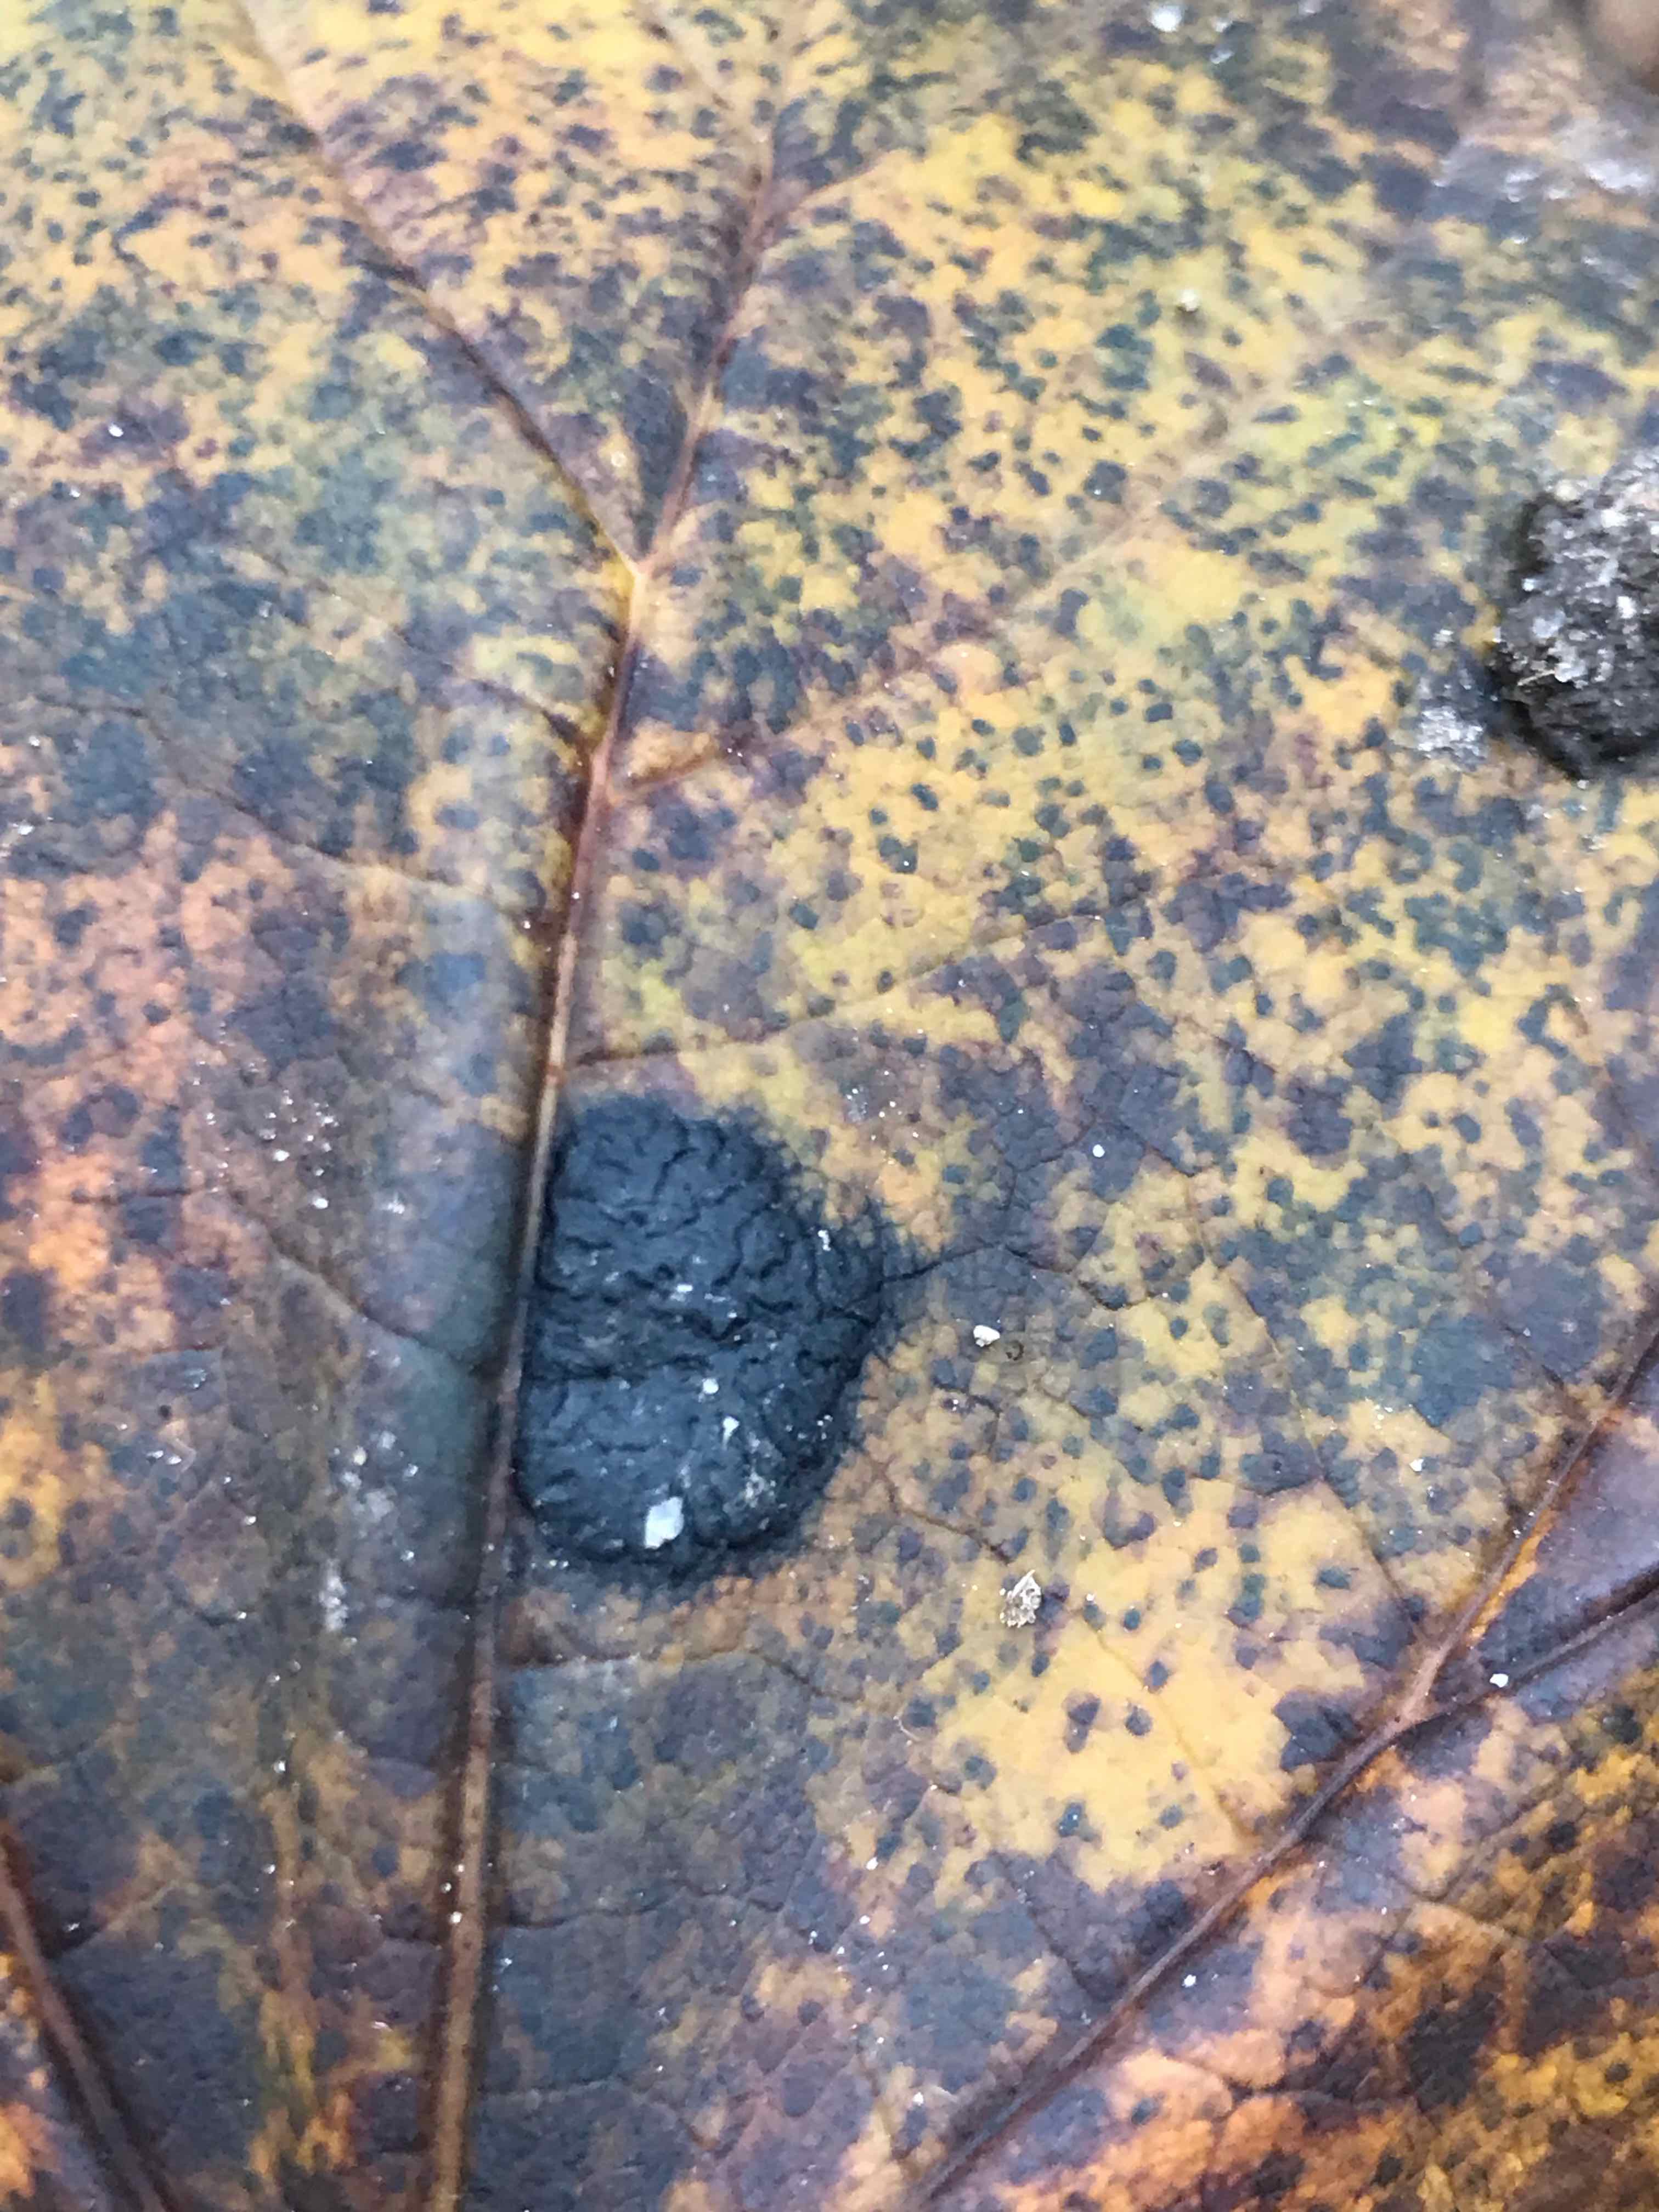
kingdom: Fungi
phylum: Ascomycota
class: Leotiomycetes
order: Rhytismatales
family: Rhytismataceae
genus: Rhytisma
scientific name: Rhytisma acerinum
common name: ahorn-rynkeplet
